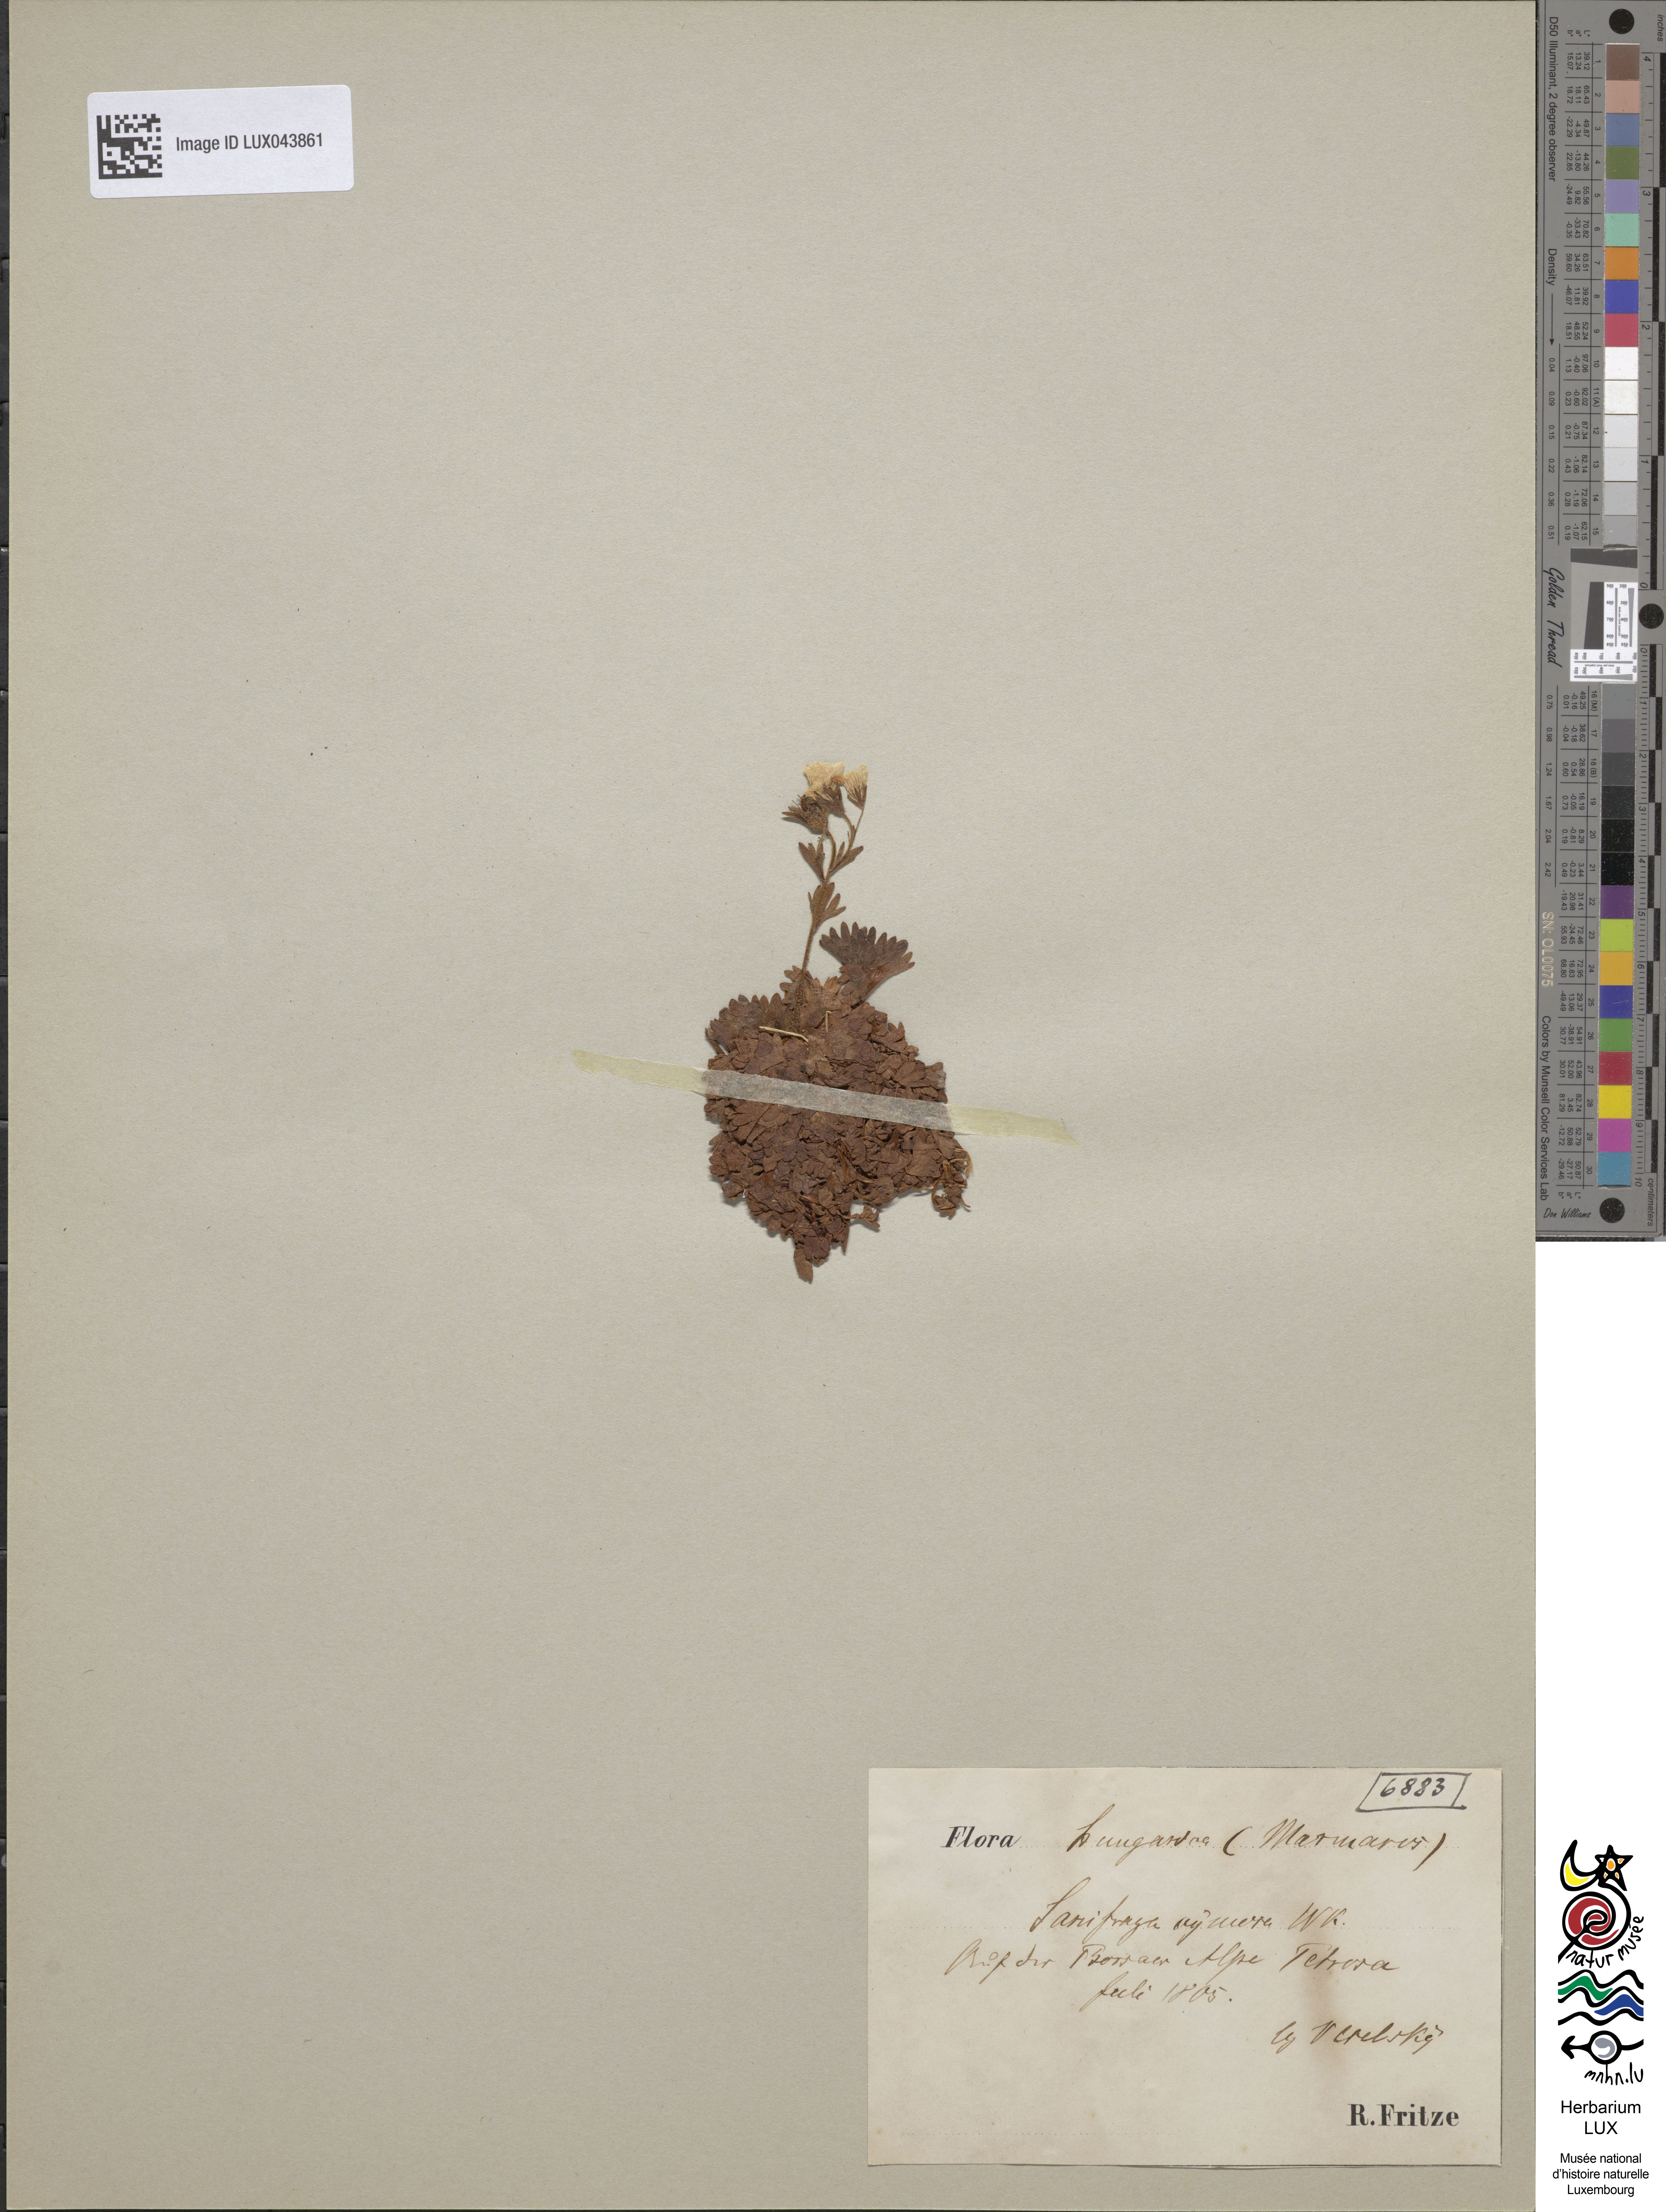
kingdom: Plantae
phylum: Tracheophyta
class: Magnoliopsida
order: Saxifragales
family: Saxifragaceae
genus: Saxifraga
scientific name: Saxifraga pedemontana
